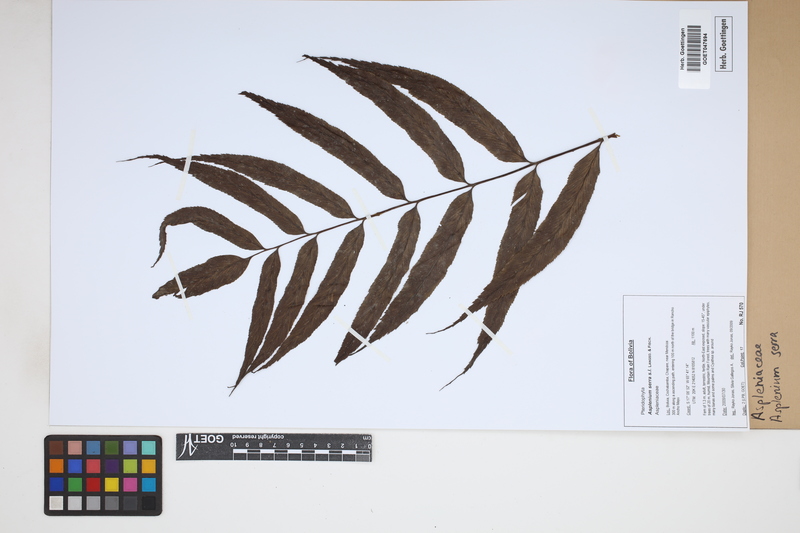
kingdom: Plantae
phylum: Tracheophyta
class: Polypodiopsida
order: Polypodiales
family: Aspleniaceae
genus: Asplenium
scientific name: Asplenium serra
